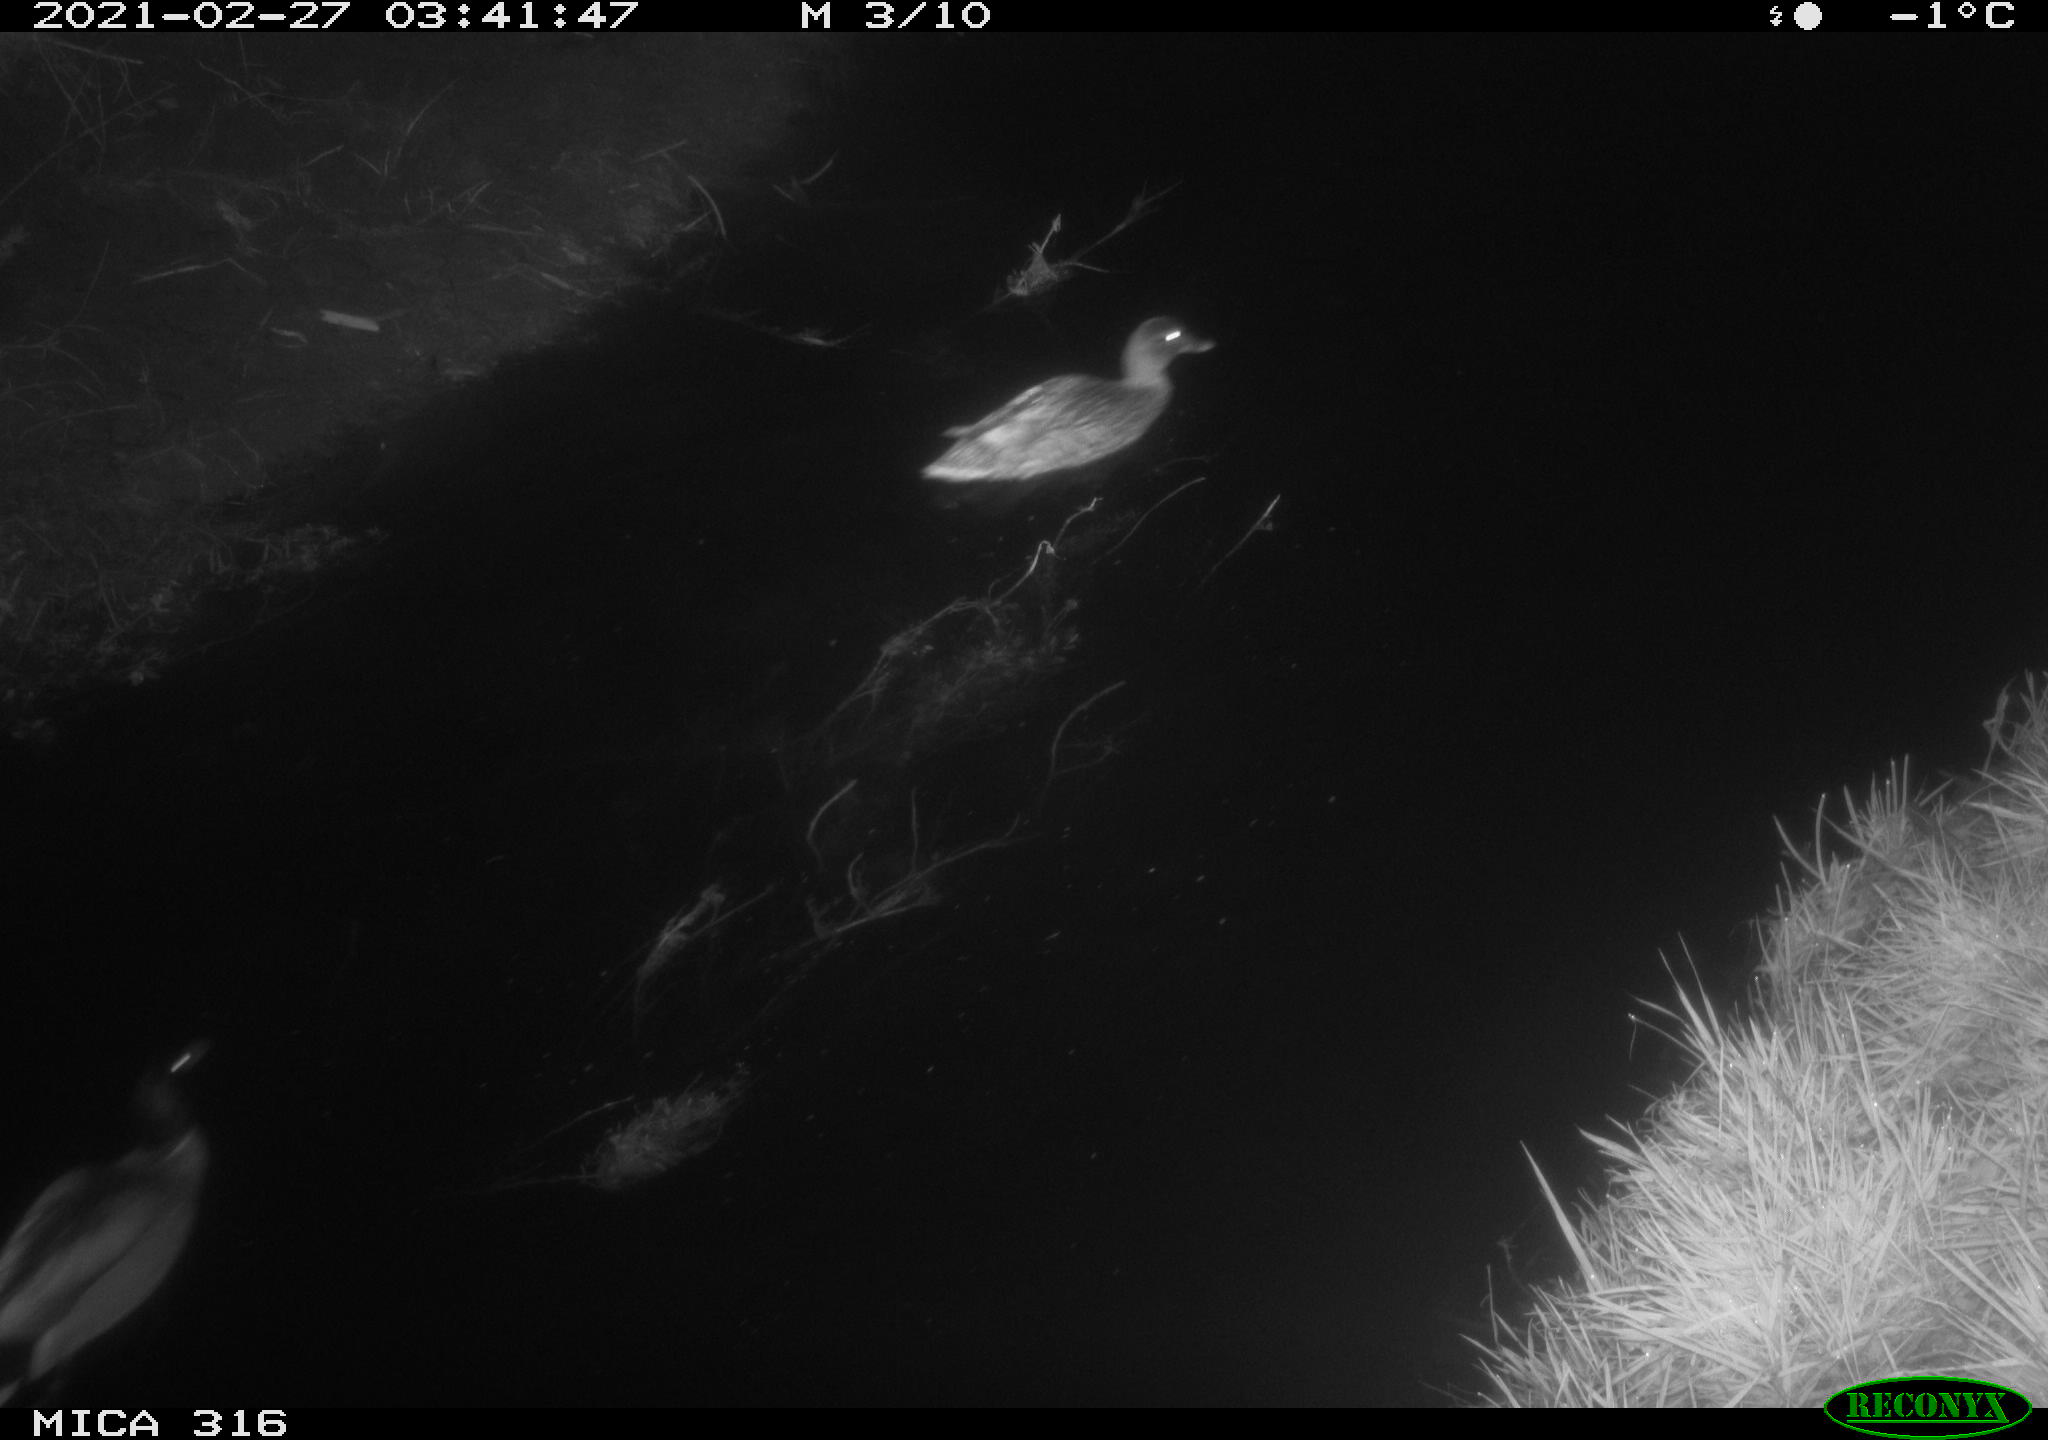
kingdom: Animalia
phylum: Chordata
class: Aves
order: Anseriformes
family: Anatidae
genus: Anas
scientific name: Anas platyrhynchos
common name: Mallard
